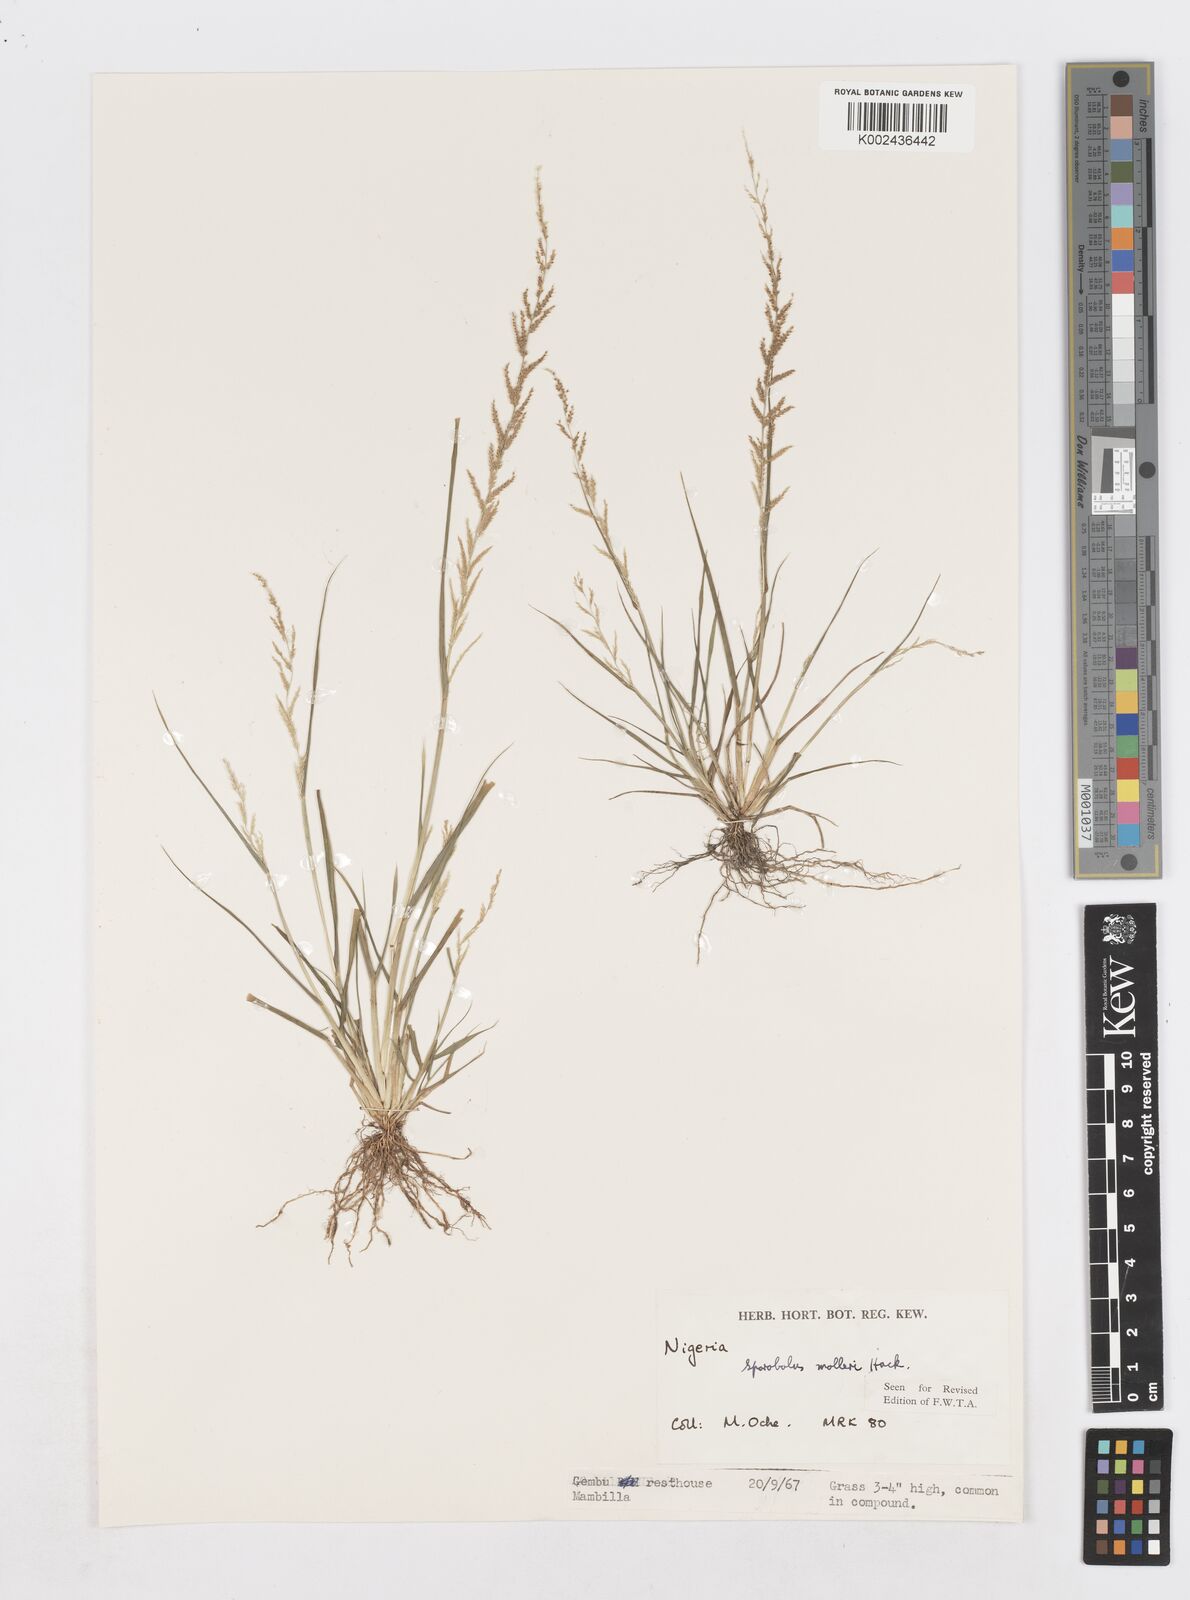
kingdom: Plantae
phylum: Tracheophyta
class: Liliopsida
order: Poales
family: Poaceae
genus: Sporobolus
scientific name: Sporobolus molleri
